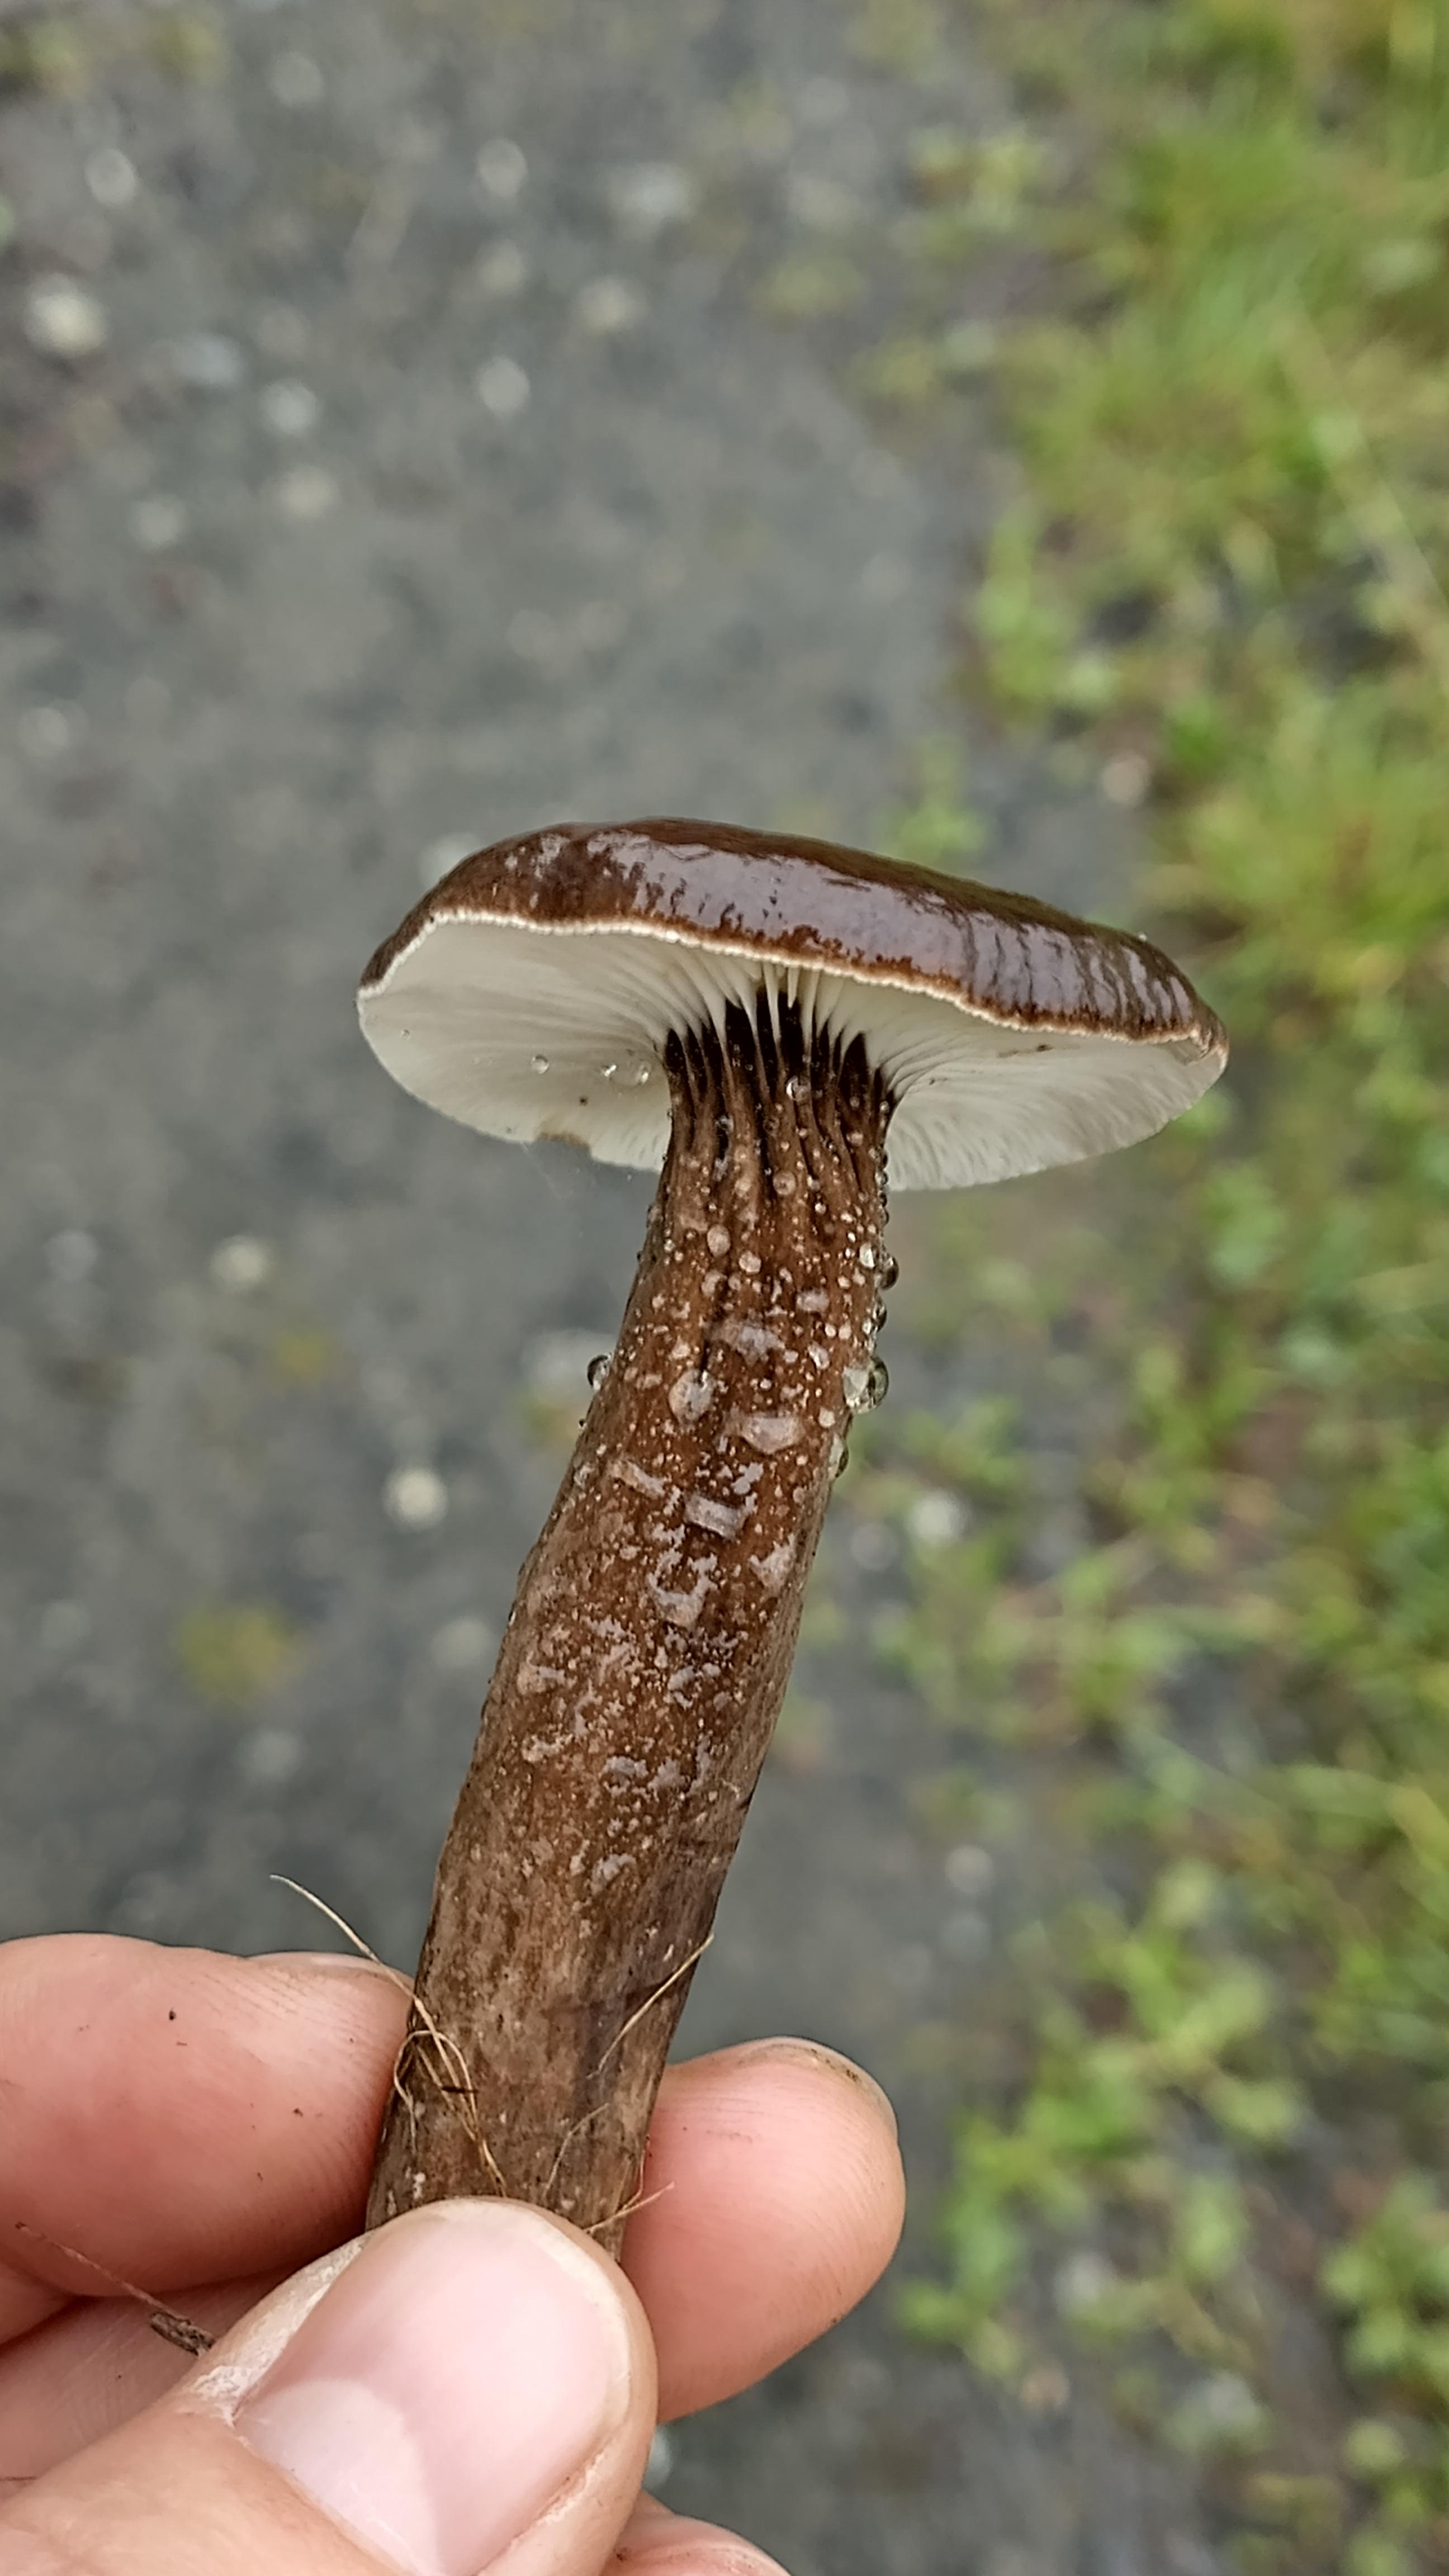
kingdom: Fungi
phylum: Basidiomycota
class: Agaricomycetes
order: Russulales
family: Russulaceae
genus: Lactarius
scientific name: Lactarius lignyotus
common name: fløjls-mælkehat
